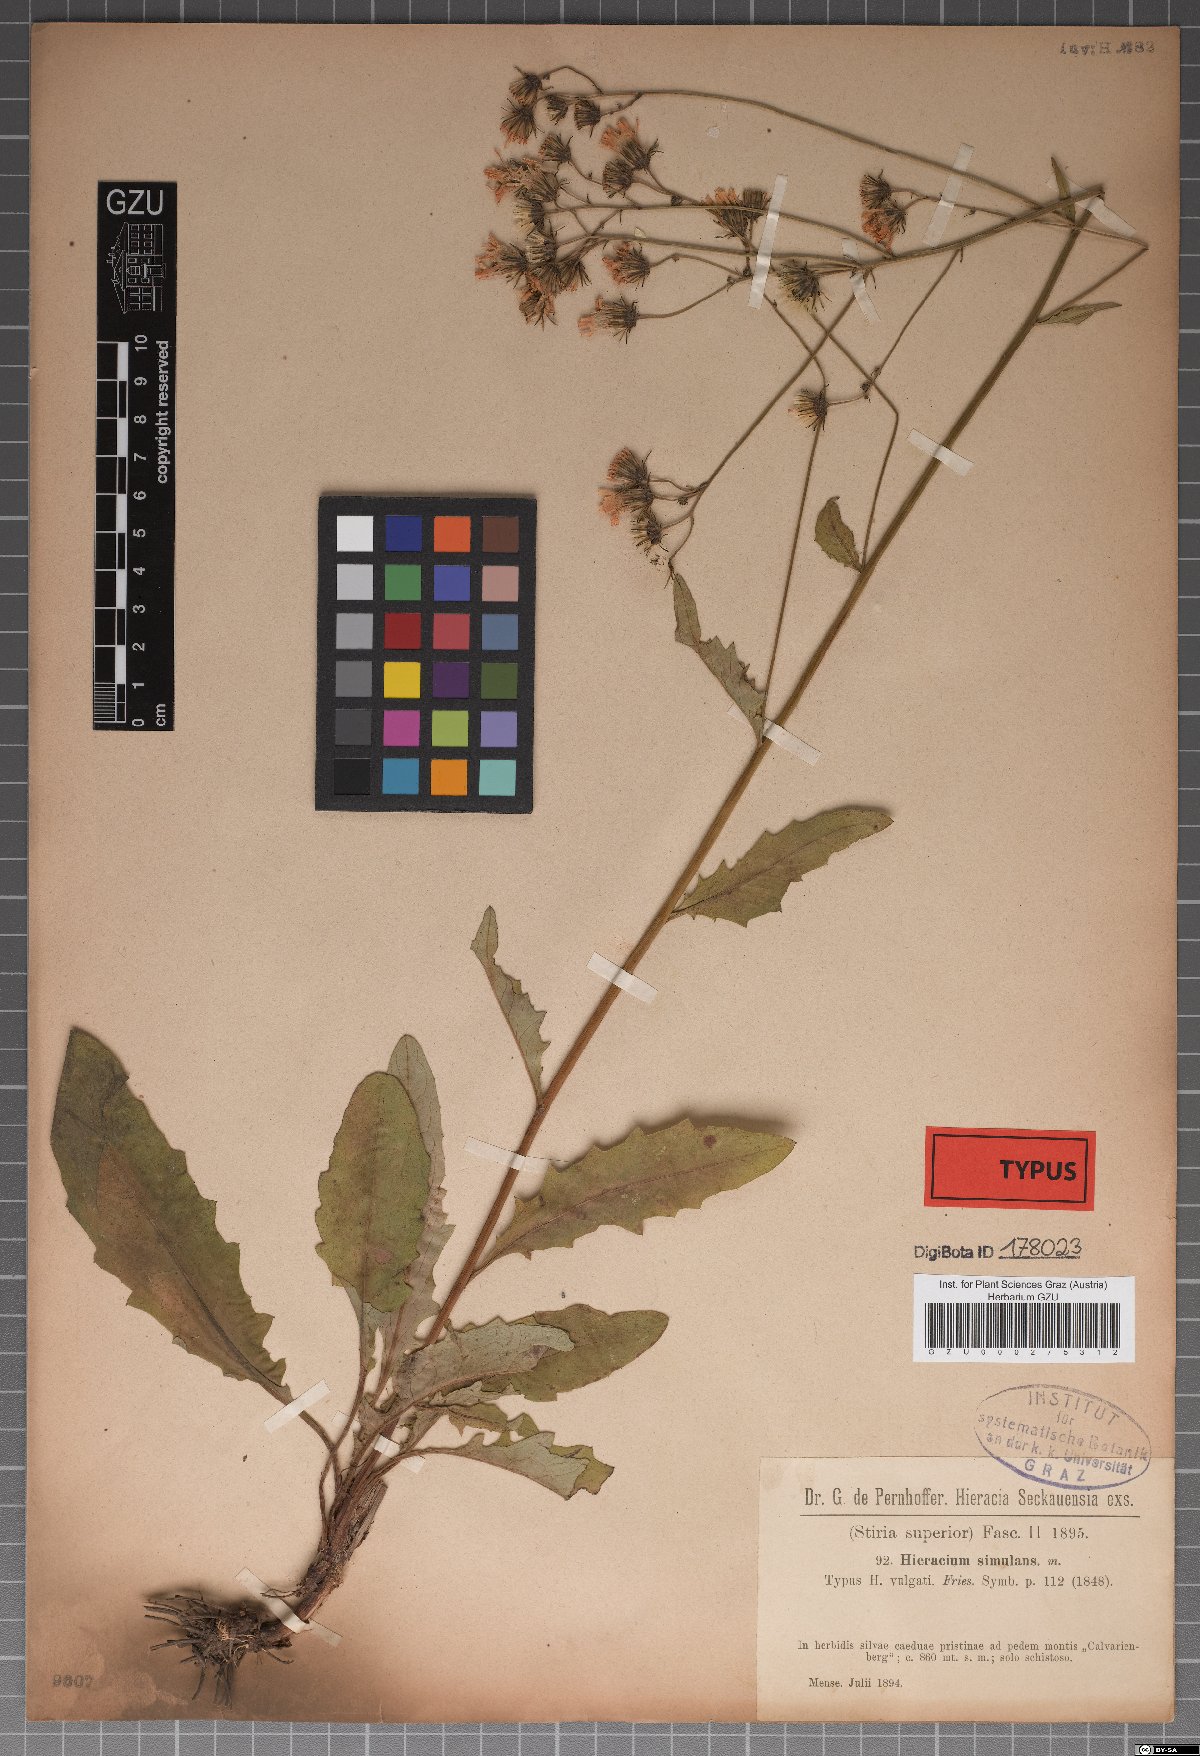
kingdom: Plantae
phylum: Tracheophyta
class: Magnoliopsida
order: Asterales
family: Asteraceae
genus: Hieracium
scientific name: Hieracium simulans
